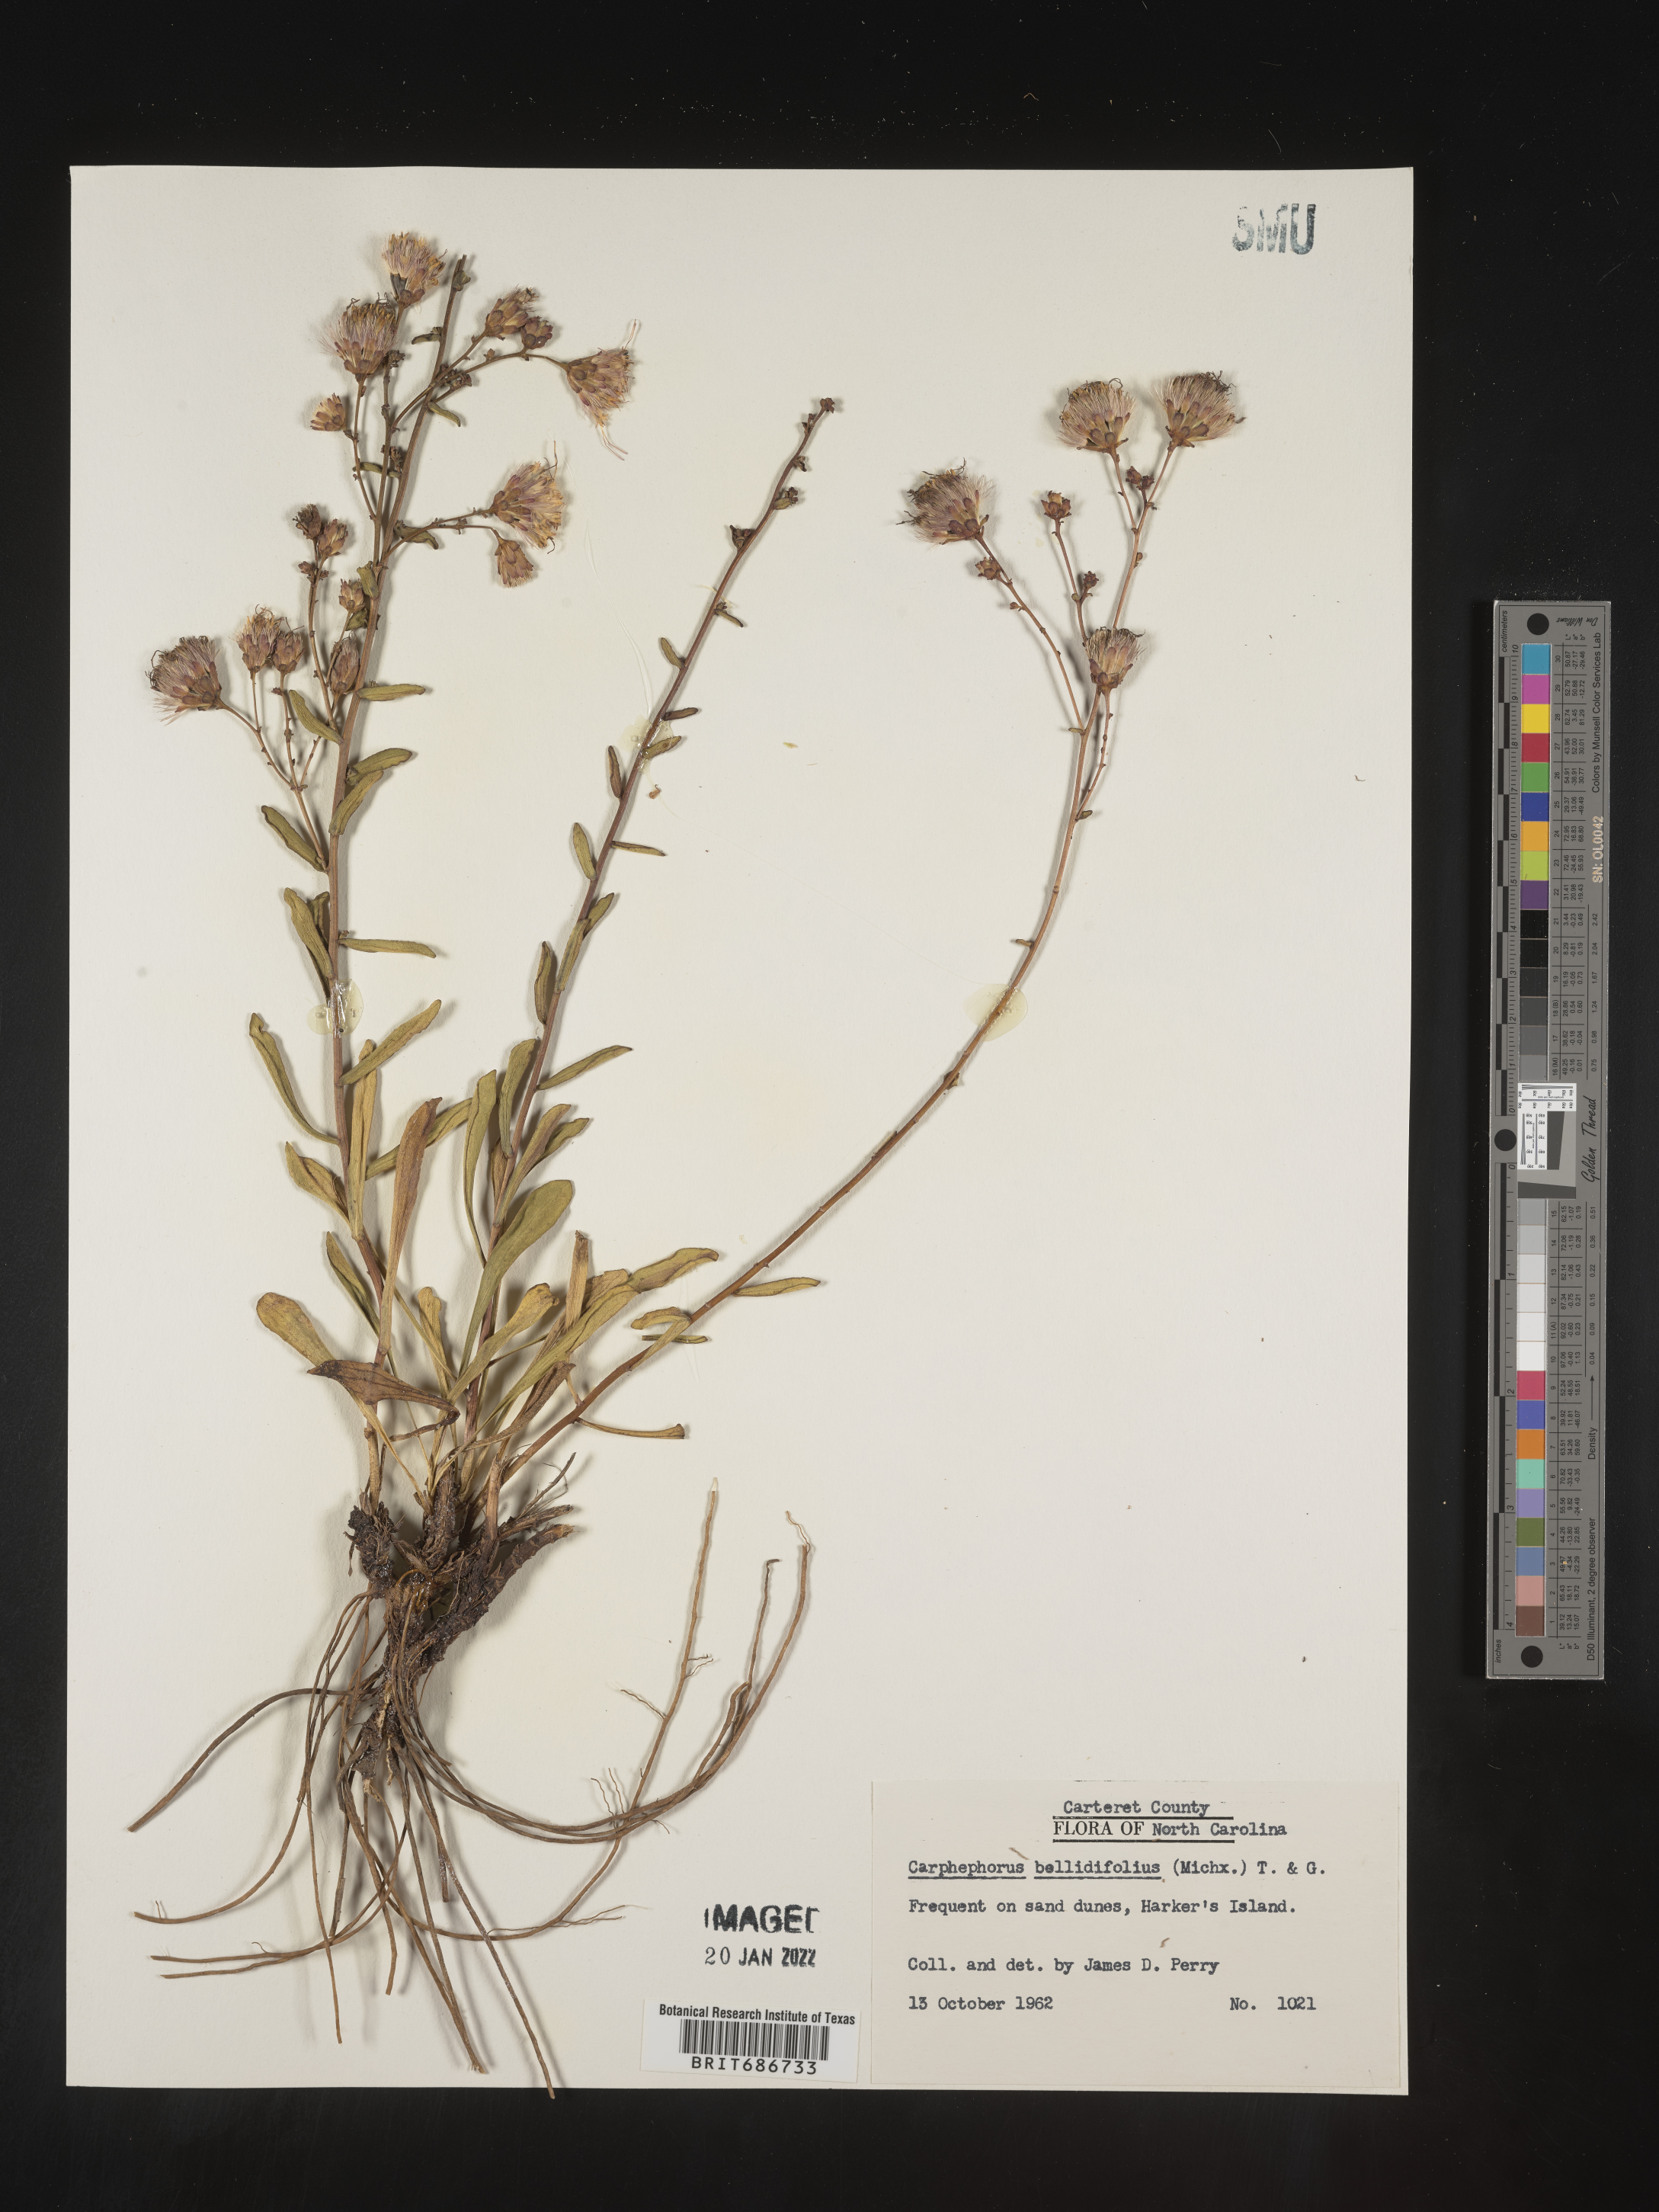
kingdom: Plantae
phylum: Tracheophyta
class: Magnoliopsida
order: Asterales
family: Asteraceae
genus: Carphephorus
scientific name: Carphephorus bellidifolius
